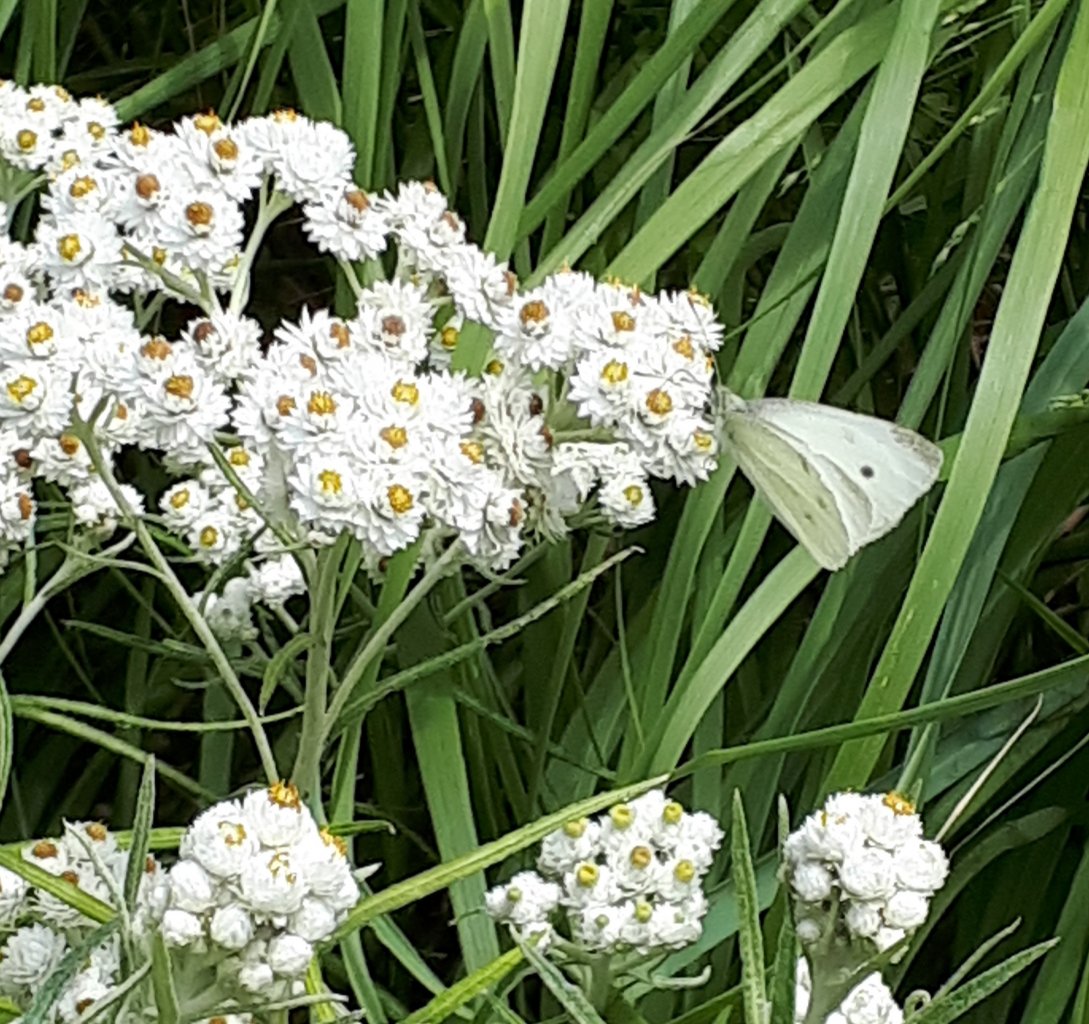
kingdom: Animalia
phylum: Arthropoda
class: Insecta
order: Lepidoptera
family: Pieridae
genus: Pieris
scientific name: Pieris rapae
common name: Cabbage White
